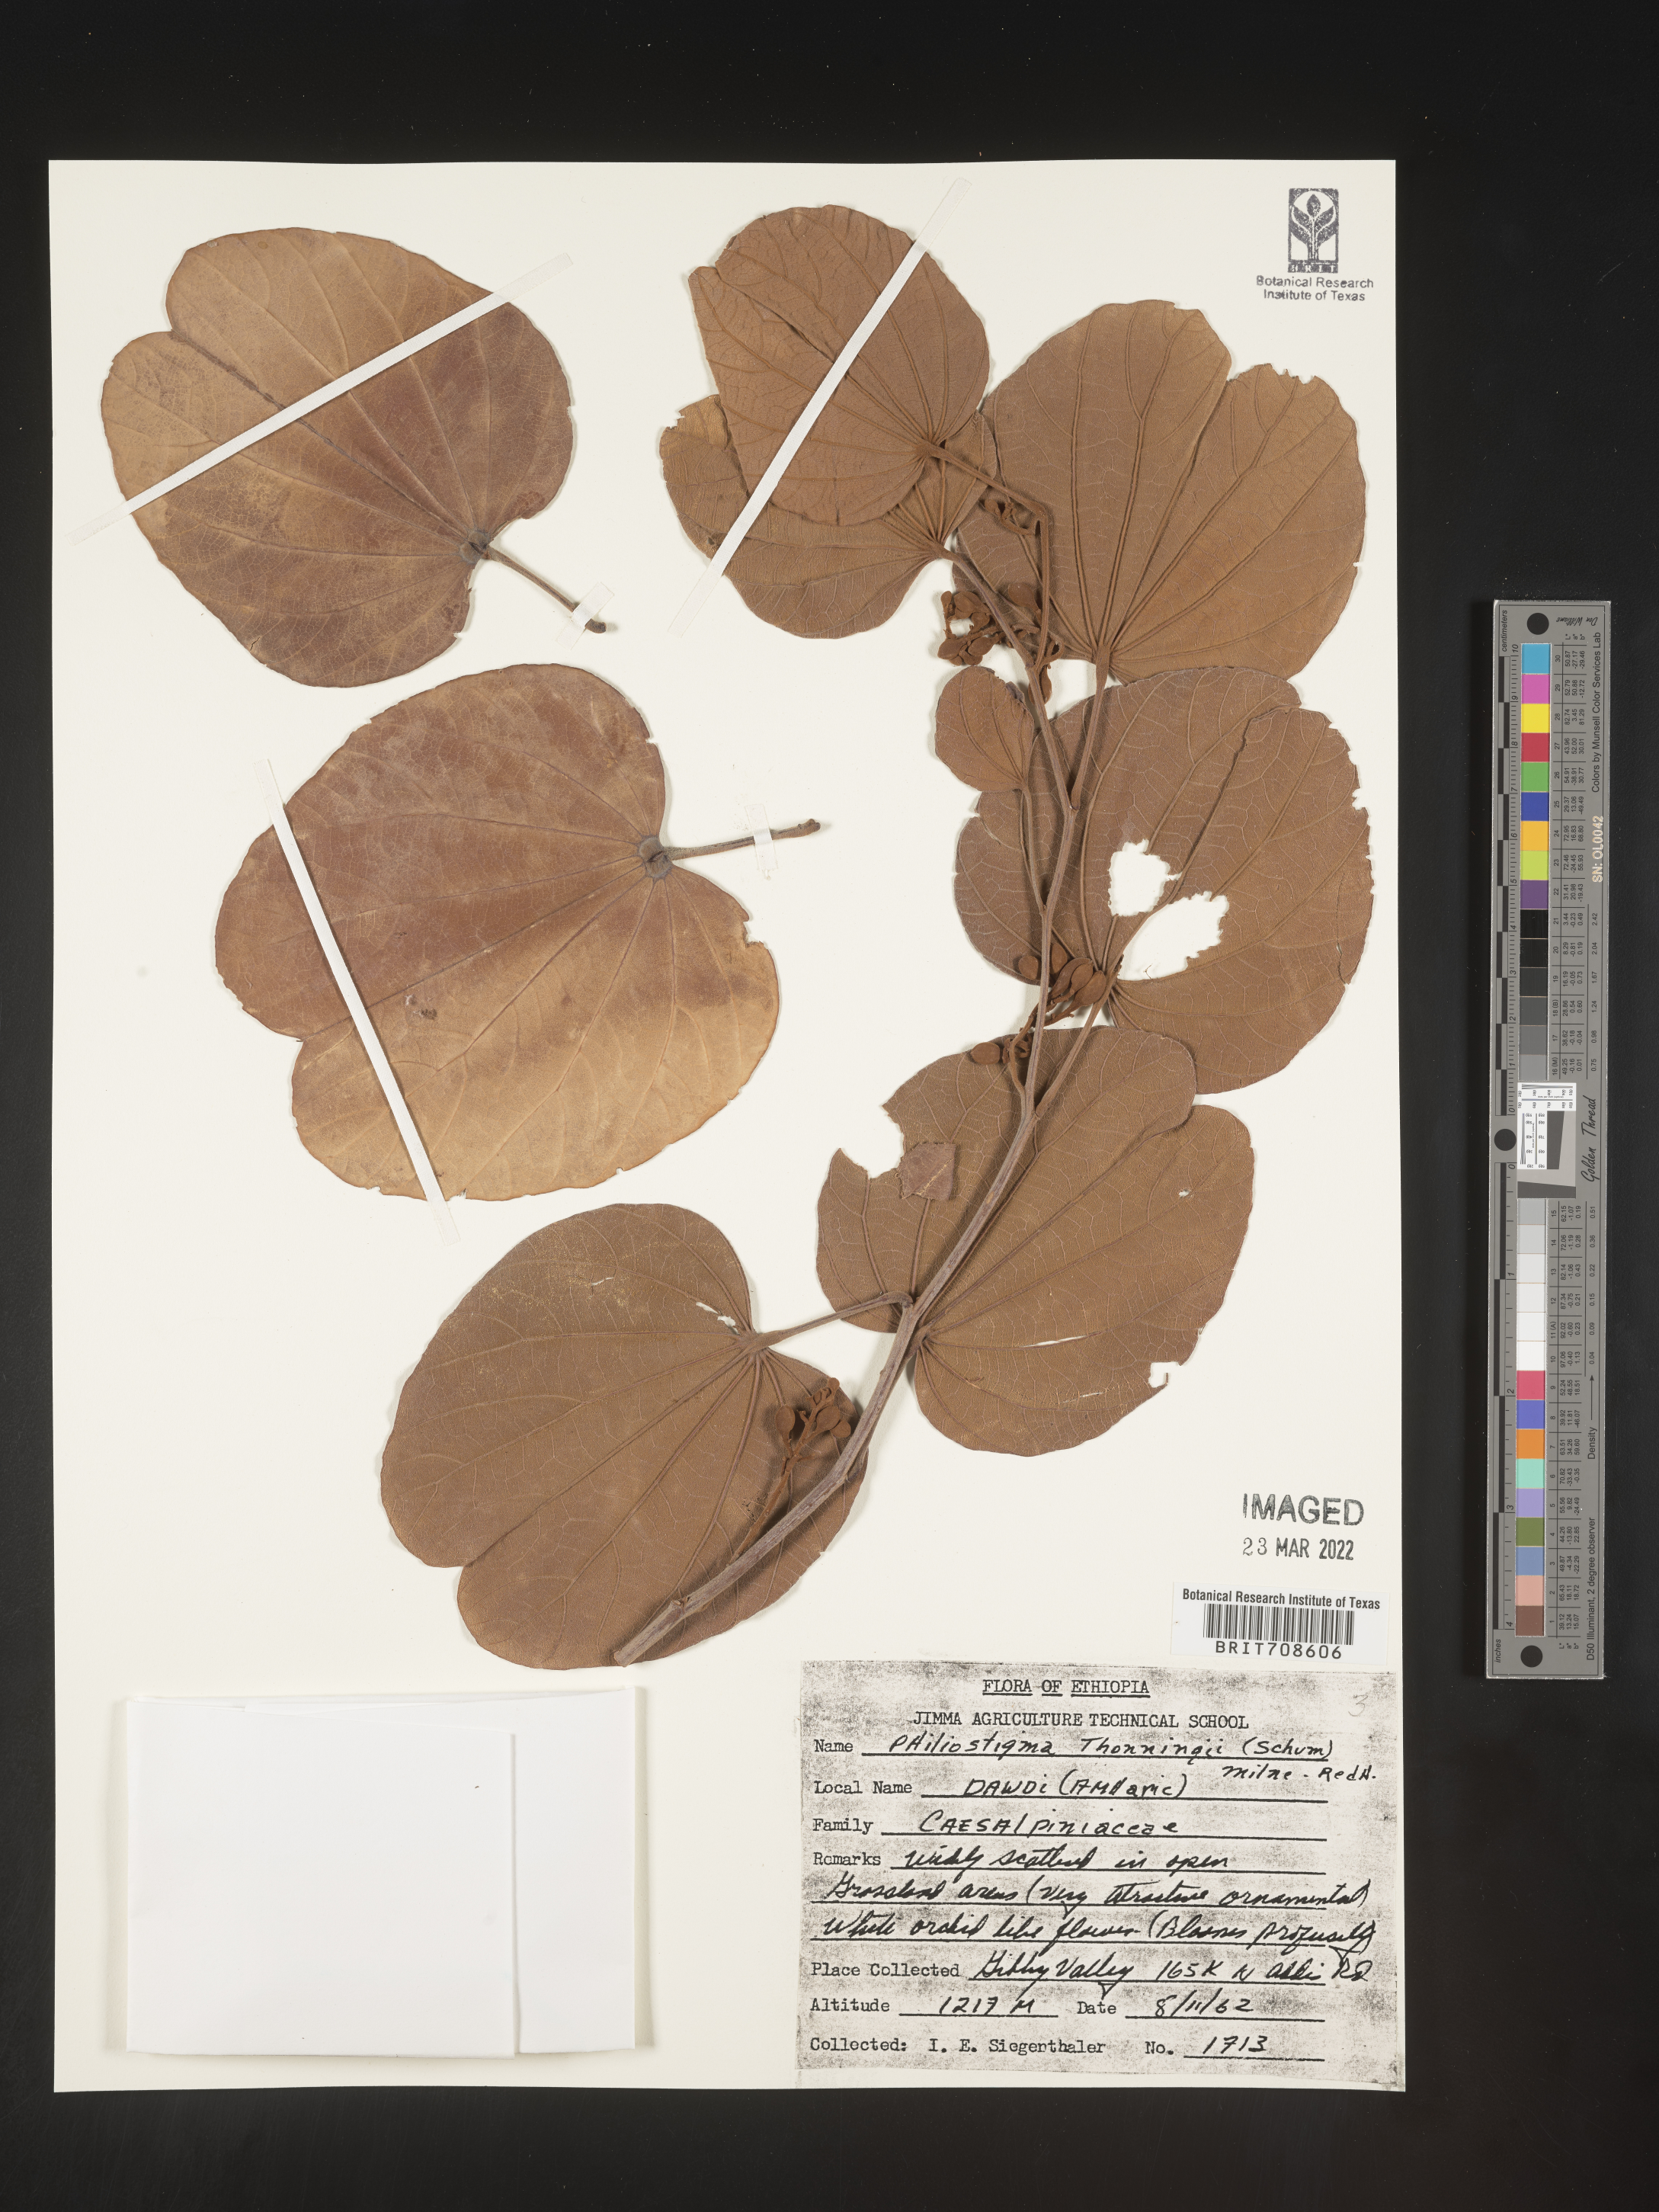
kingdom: Plantae
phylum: Tracheophyta
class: Magnoliopsida
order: Fabales
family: Fabaceae
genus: Piliostigma
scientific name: Piliostigma
